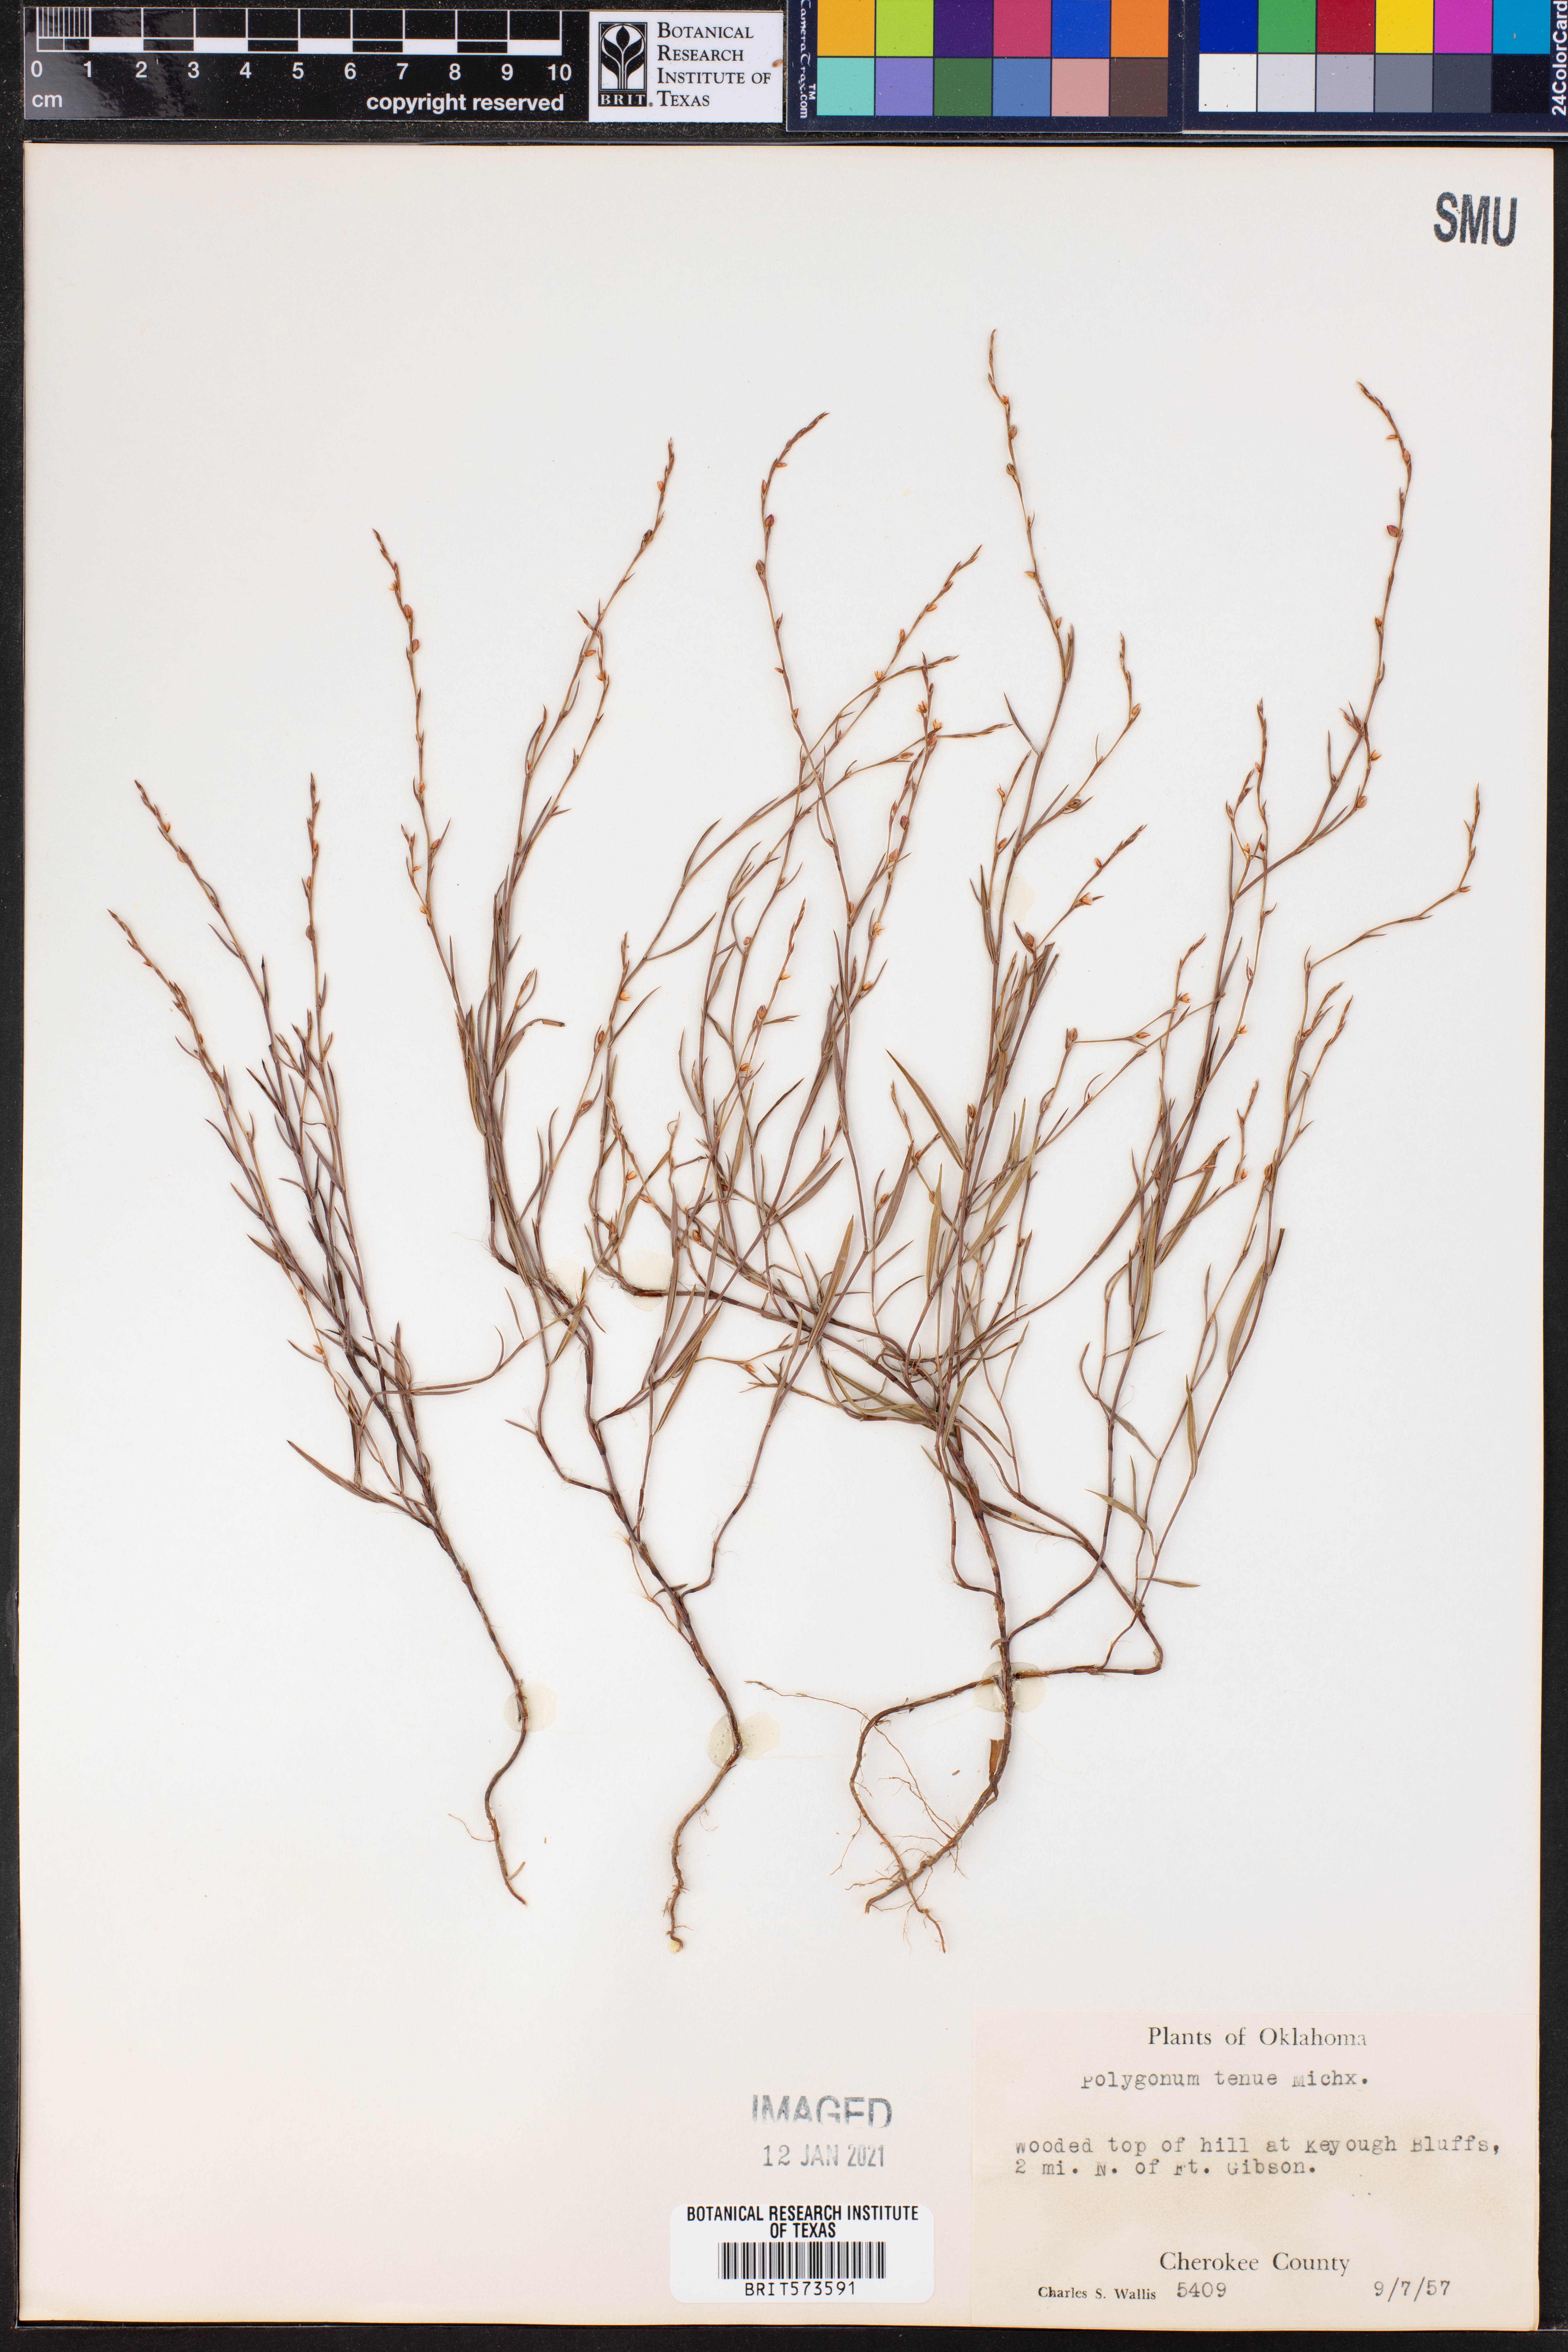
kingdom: Plantae
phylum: Tracheophyta
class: Magnoliopsida
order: Caryophyllales
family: Polygonaceae
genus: Polygonum
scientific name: Polygonum tenue
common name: Pleat-leaved knotweed
